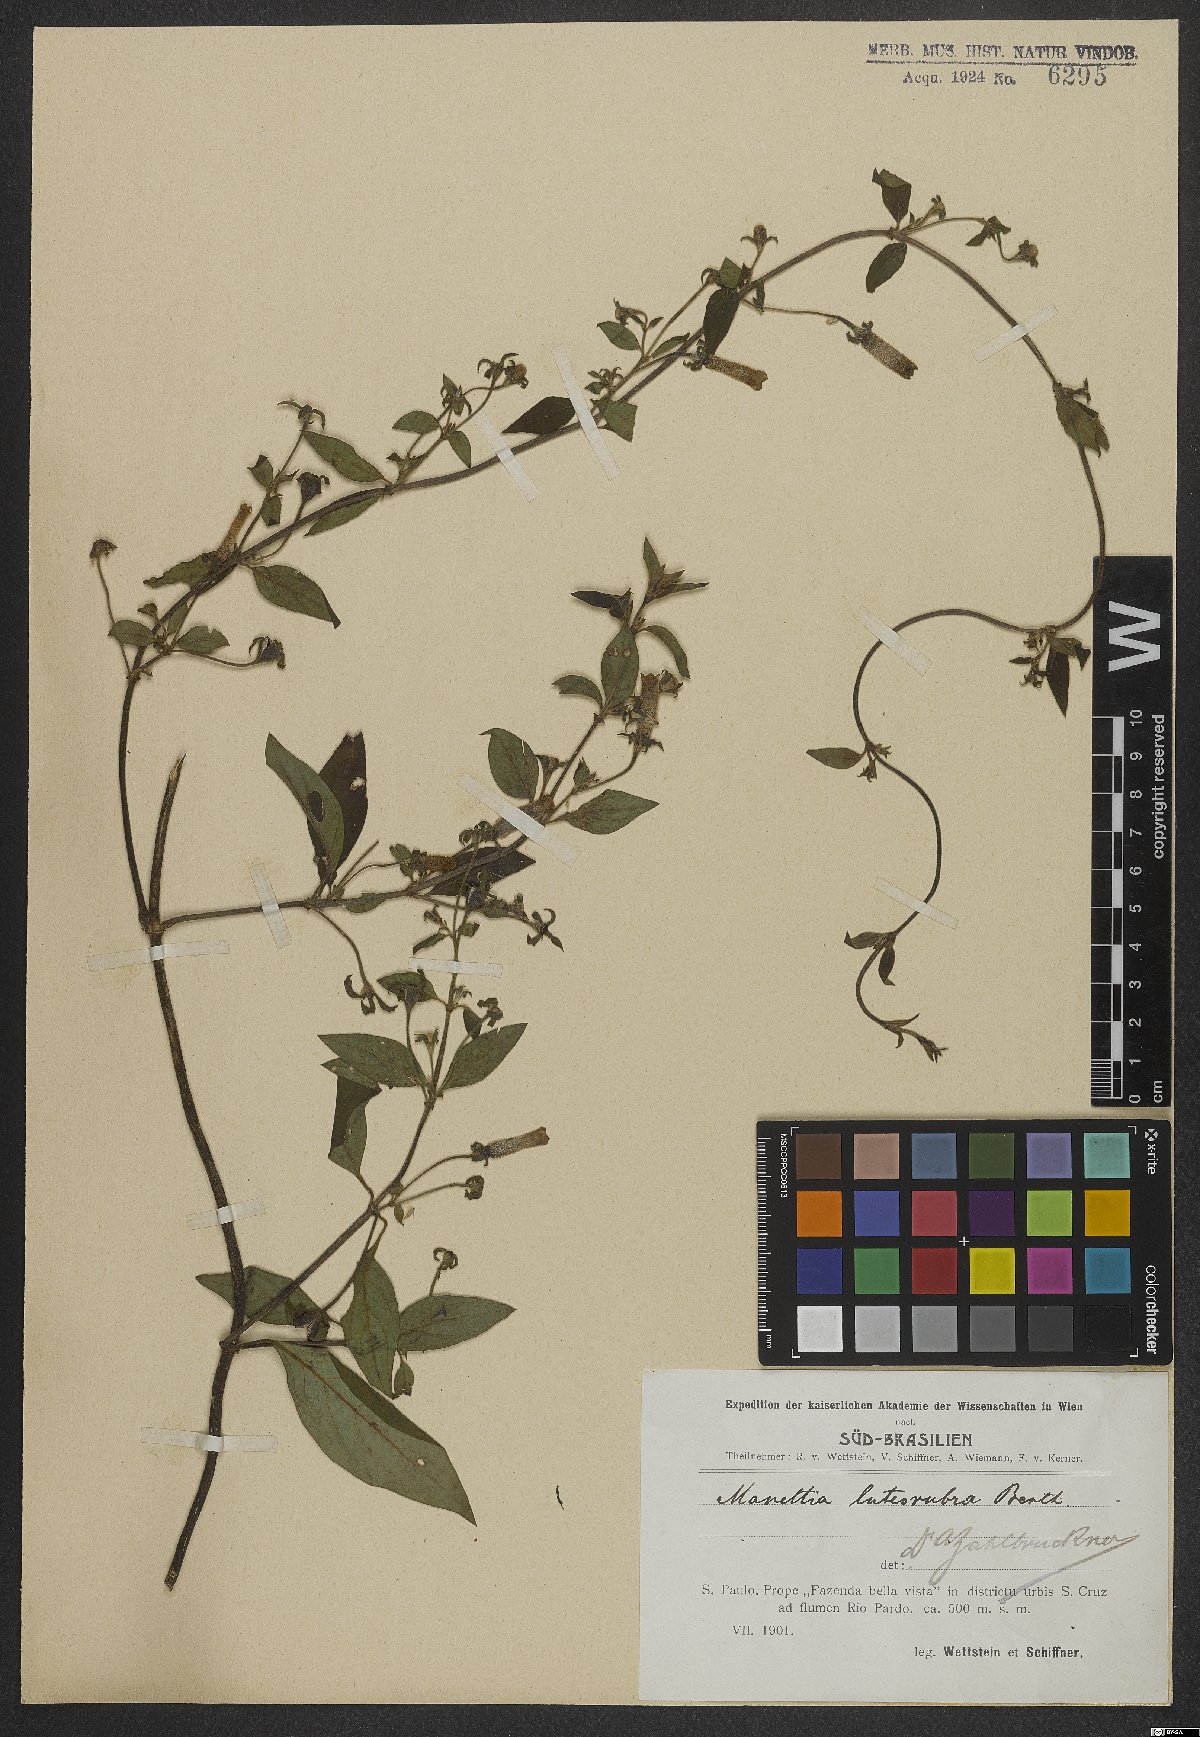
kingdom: Plantae
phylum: Tracheophyta
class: Magnoliopsida
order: Gentianales
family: Rubiaceae
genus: Manettia
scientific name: Manettia luteorubra
